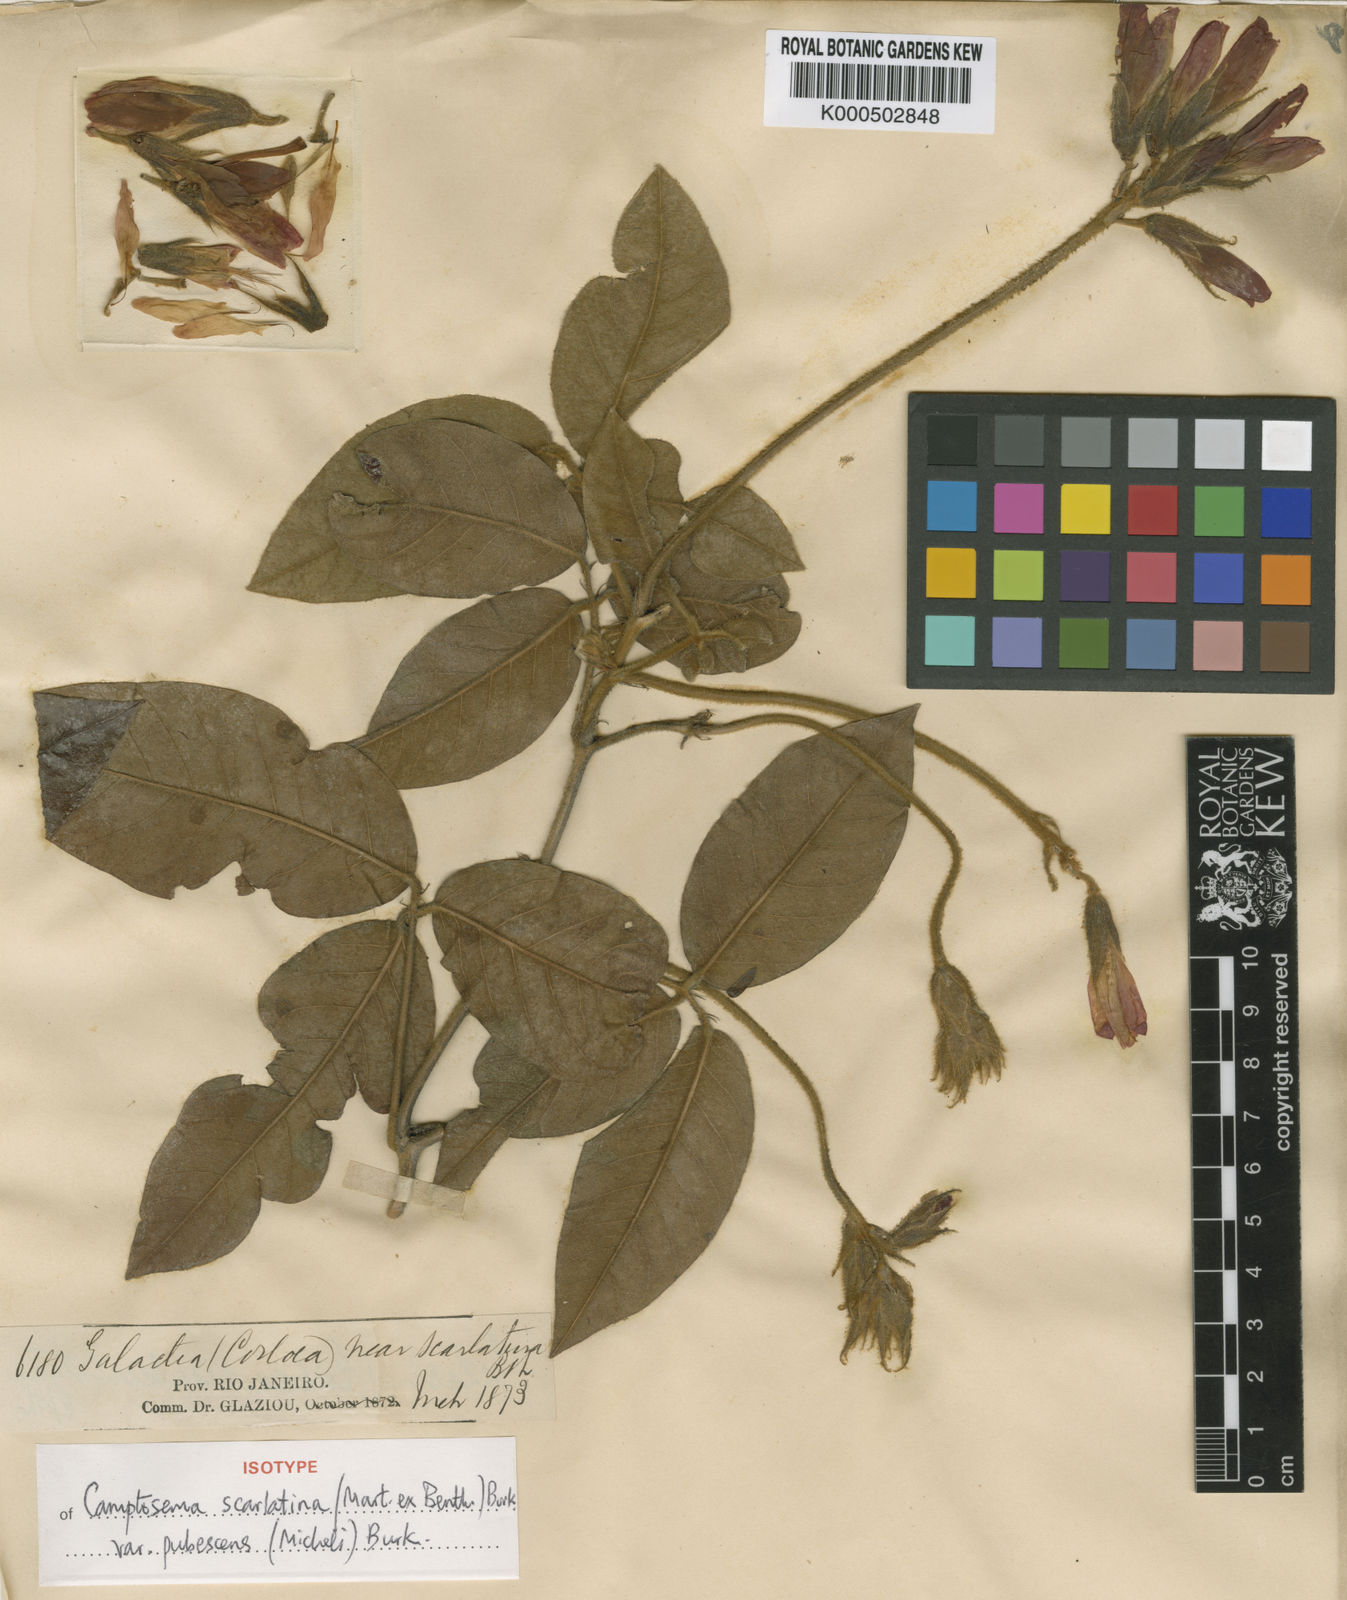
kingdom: Plantae
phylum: Tracheophyta
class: Magnoliopsida
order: Fabales
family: Fabaceae
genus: Betencourtia
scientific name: Betencourtia scarlatina
